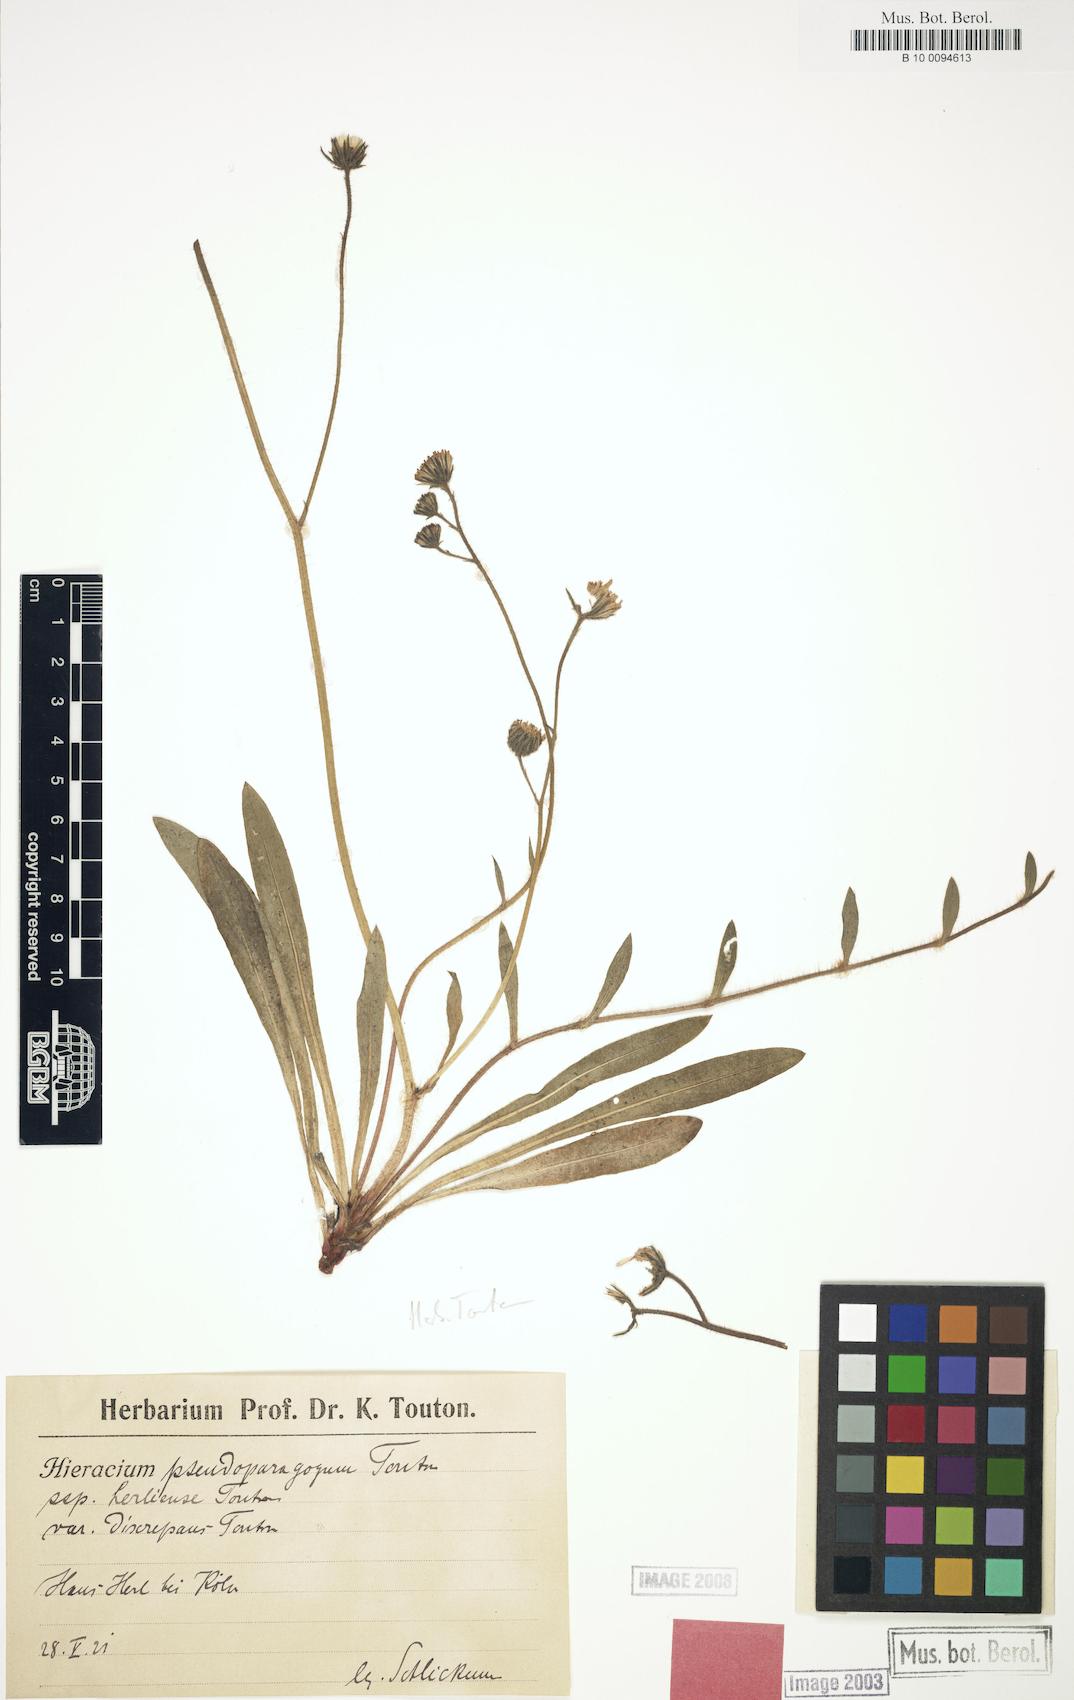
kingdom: Plantae
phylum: Tracheophyta
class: Magnoliopsida
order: Asterales
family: Asteraceae
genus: Pilosella
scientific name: Pilosella pseudoparagoga
